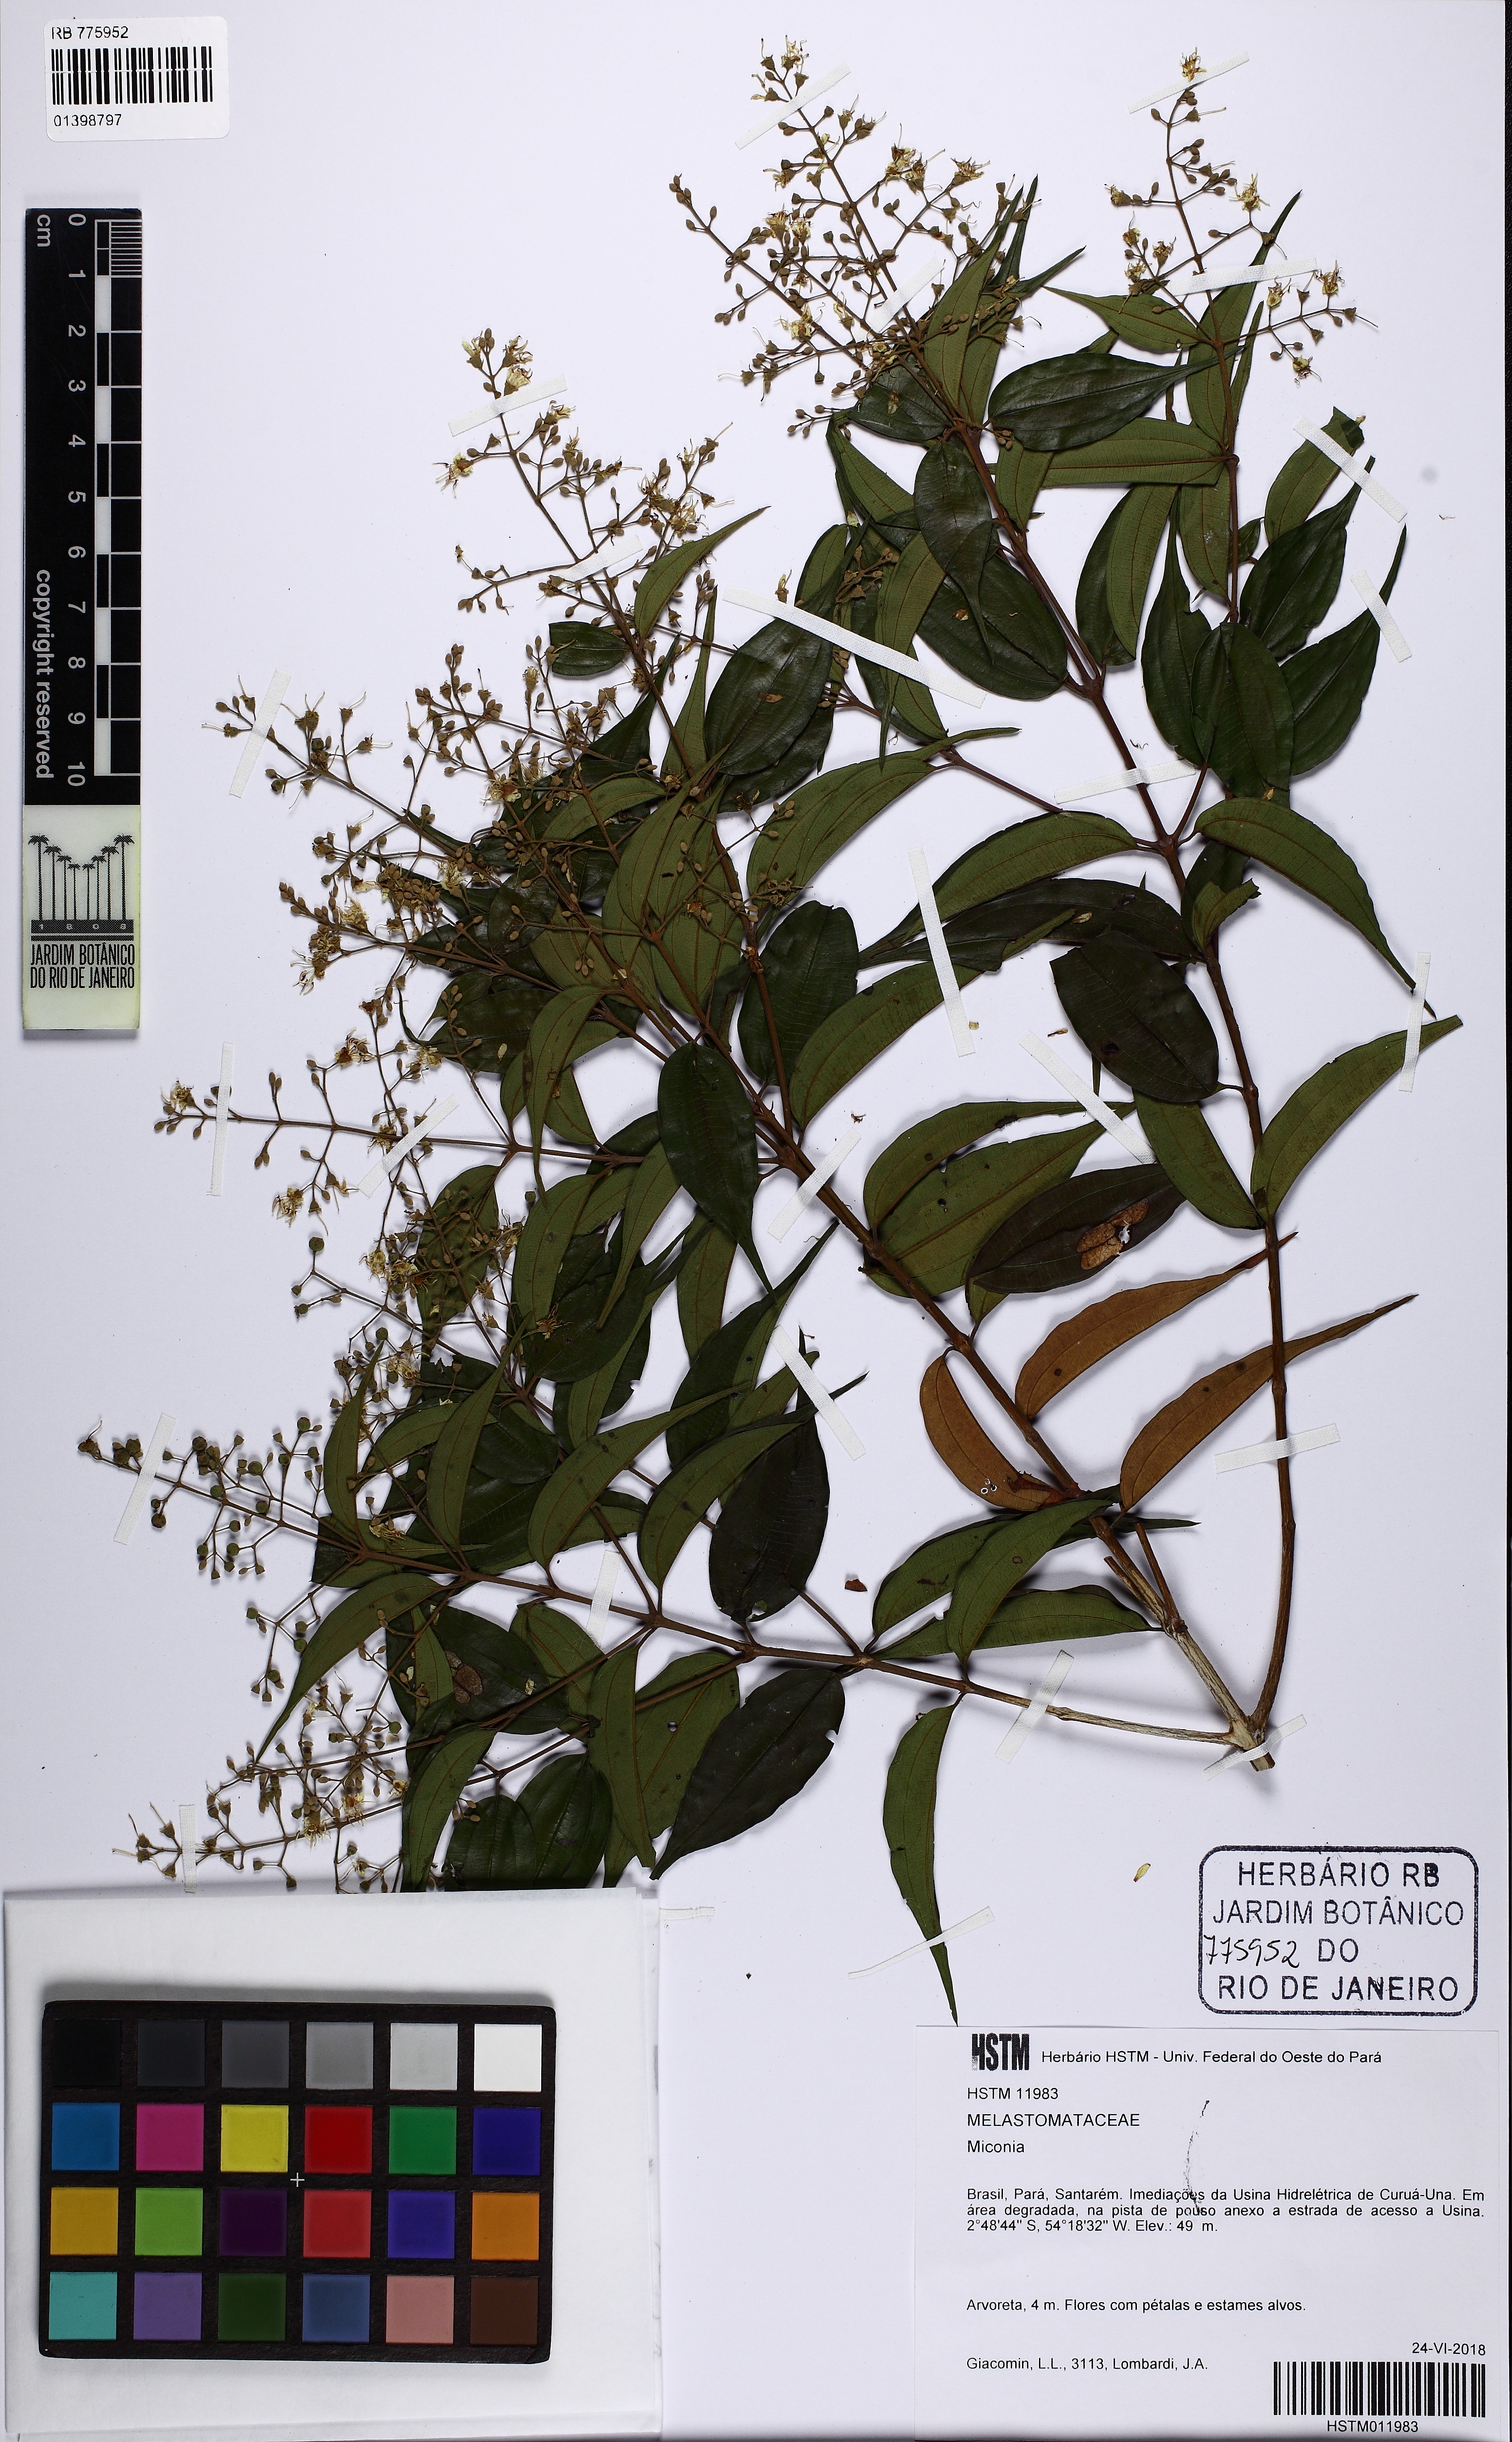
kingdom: Plantae
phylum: Tracheophyta
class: Magnoliopsida
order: Myrtales
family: Melastomataceae
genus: Miconia
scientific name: Miconia
